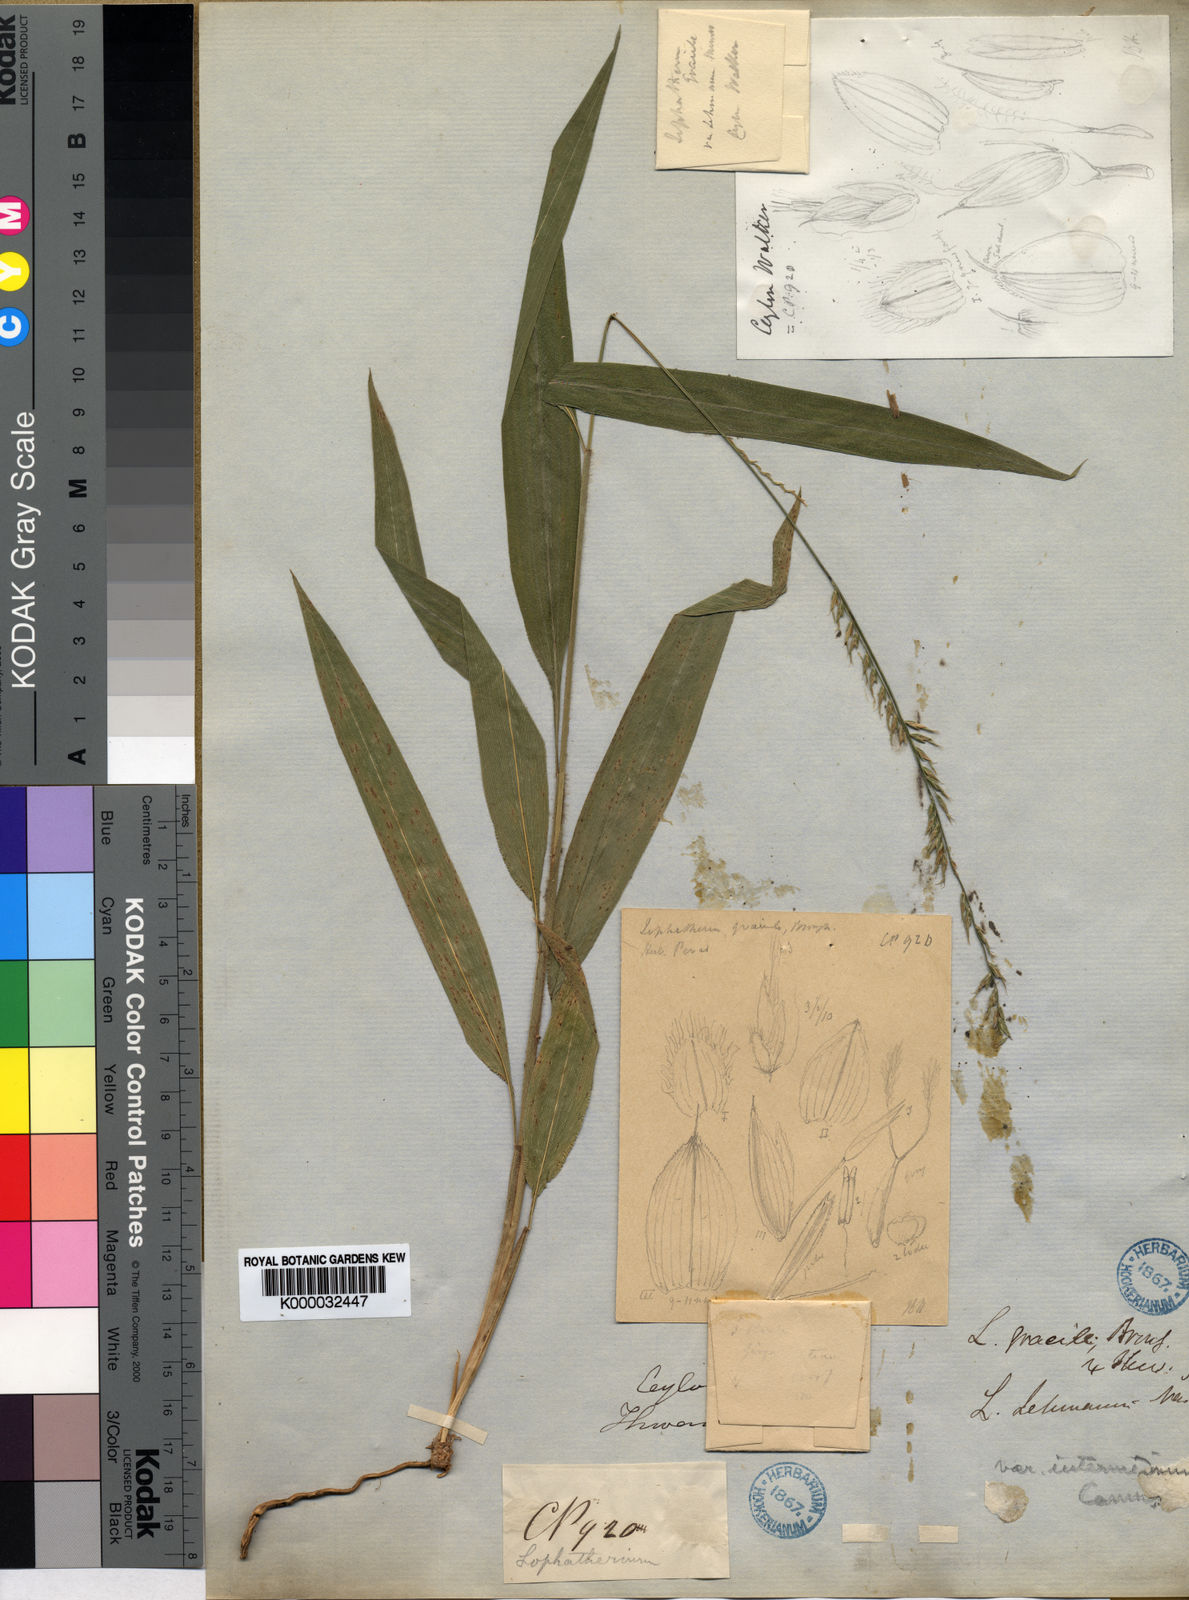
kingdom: Plantae
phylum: Tracheophyta
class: Liliopsida
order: Poales
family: Poaceae
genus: Lophatherum
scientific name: Lophatherum gracile
